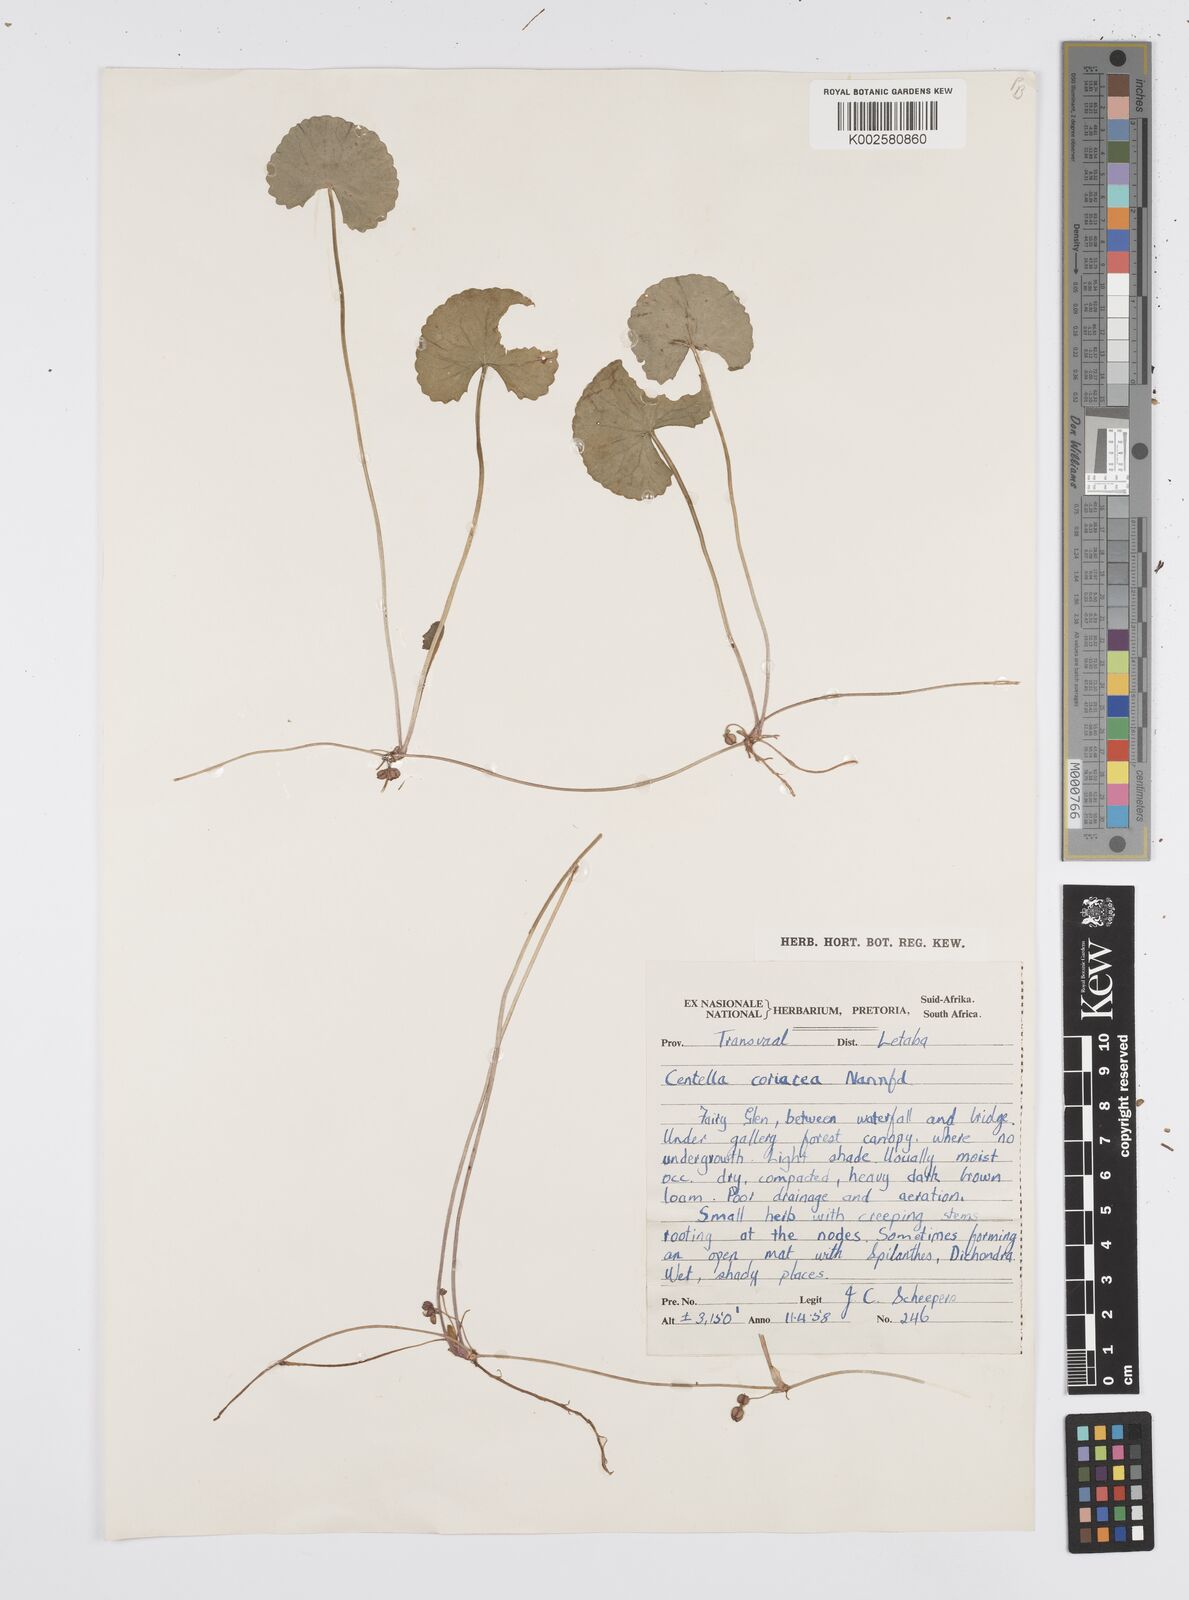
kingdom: Plantae
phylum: Tracheophyta
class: Magnoliopsida
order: Apiales
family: Apiaceae
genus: Centella
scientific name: Centella coriacea
